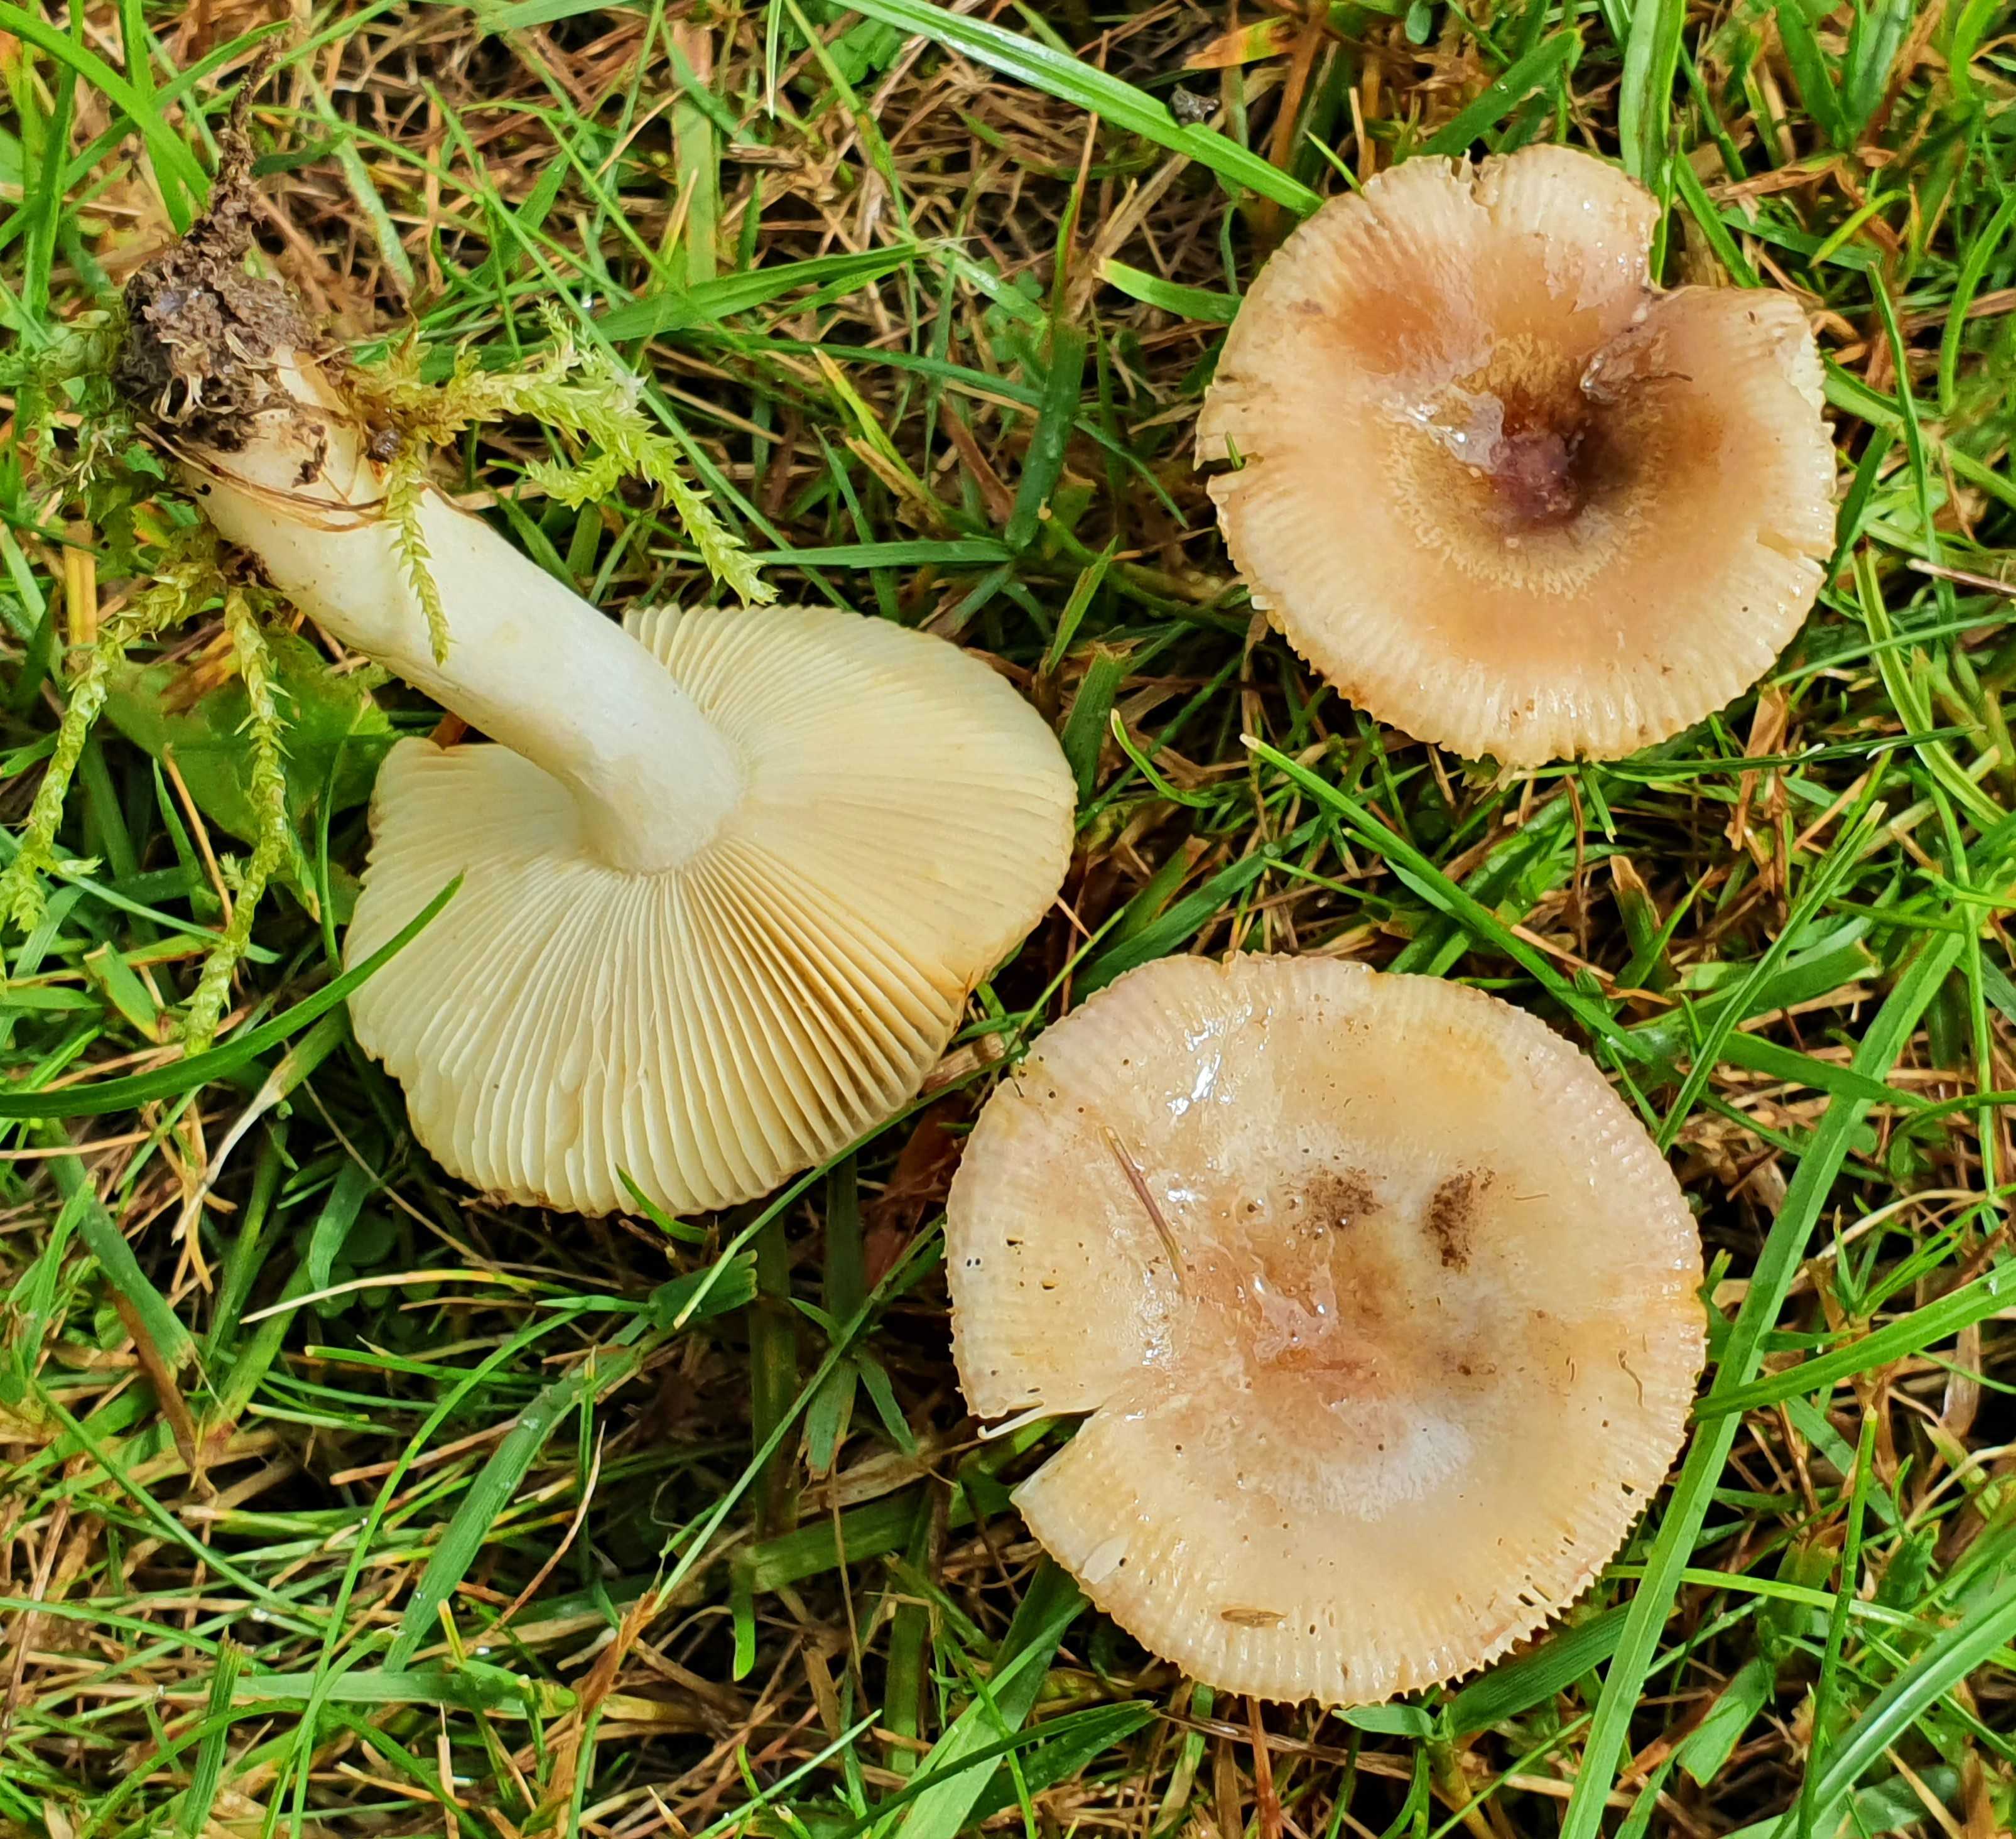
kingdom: Fungi
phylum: Basidiomycota
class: Agaricomycetes
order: Russulales
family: Russulaceae
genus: Russula
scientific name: Russula
